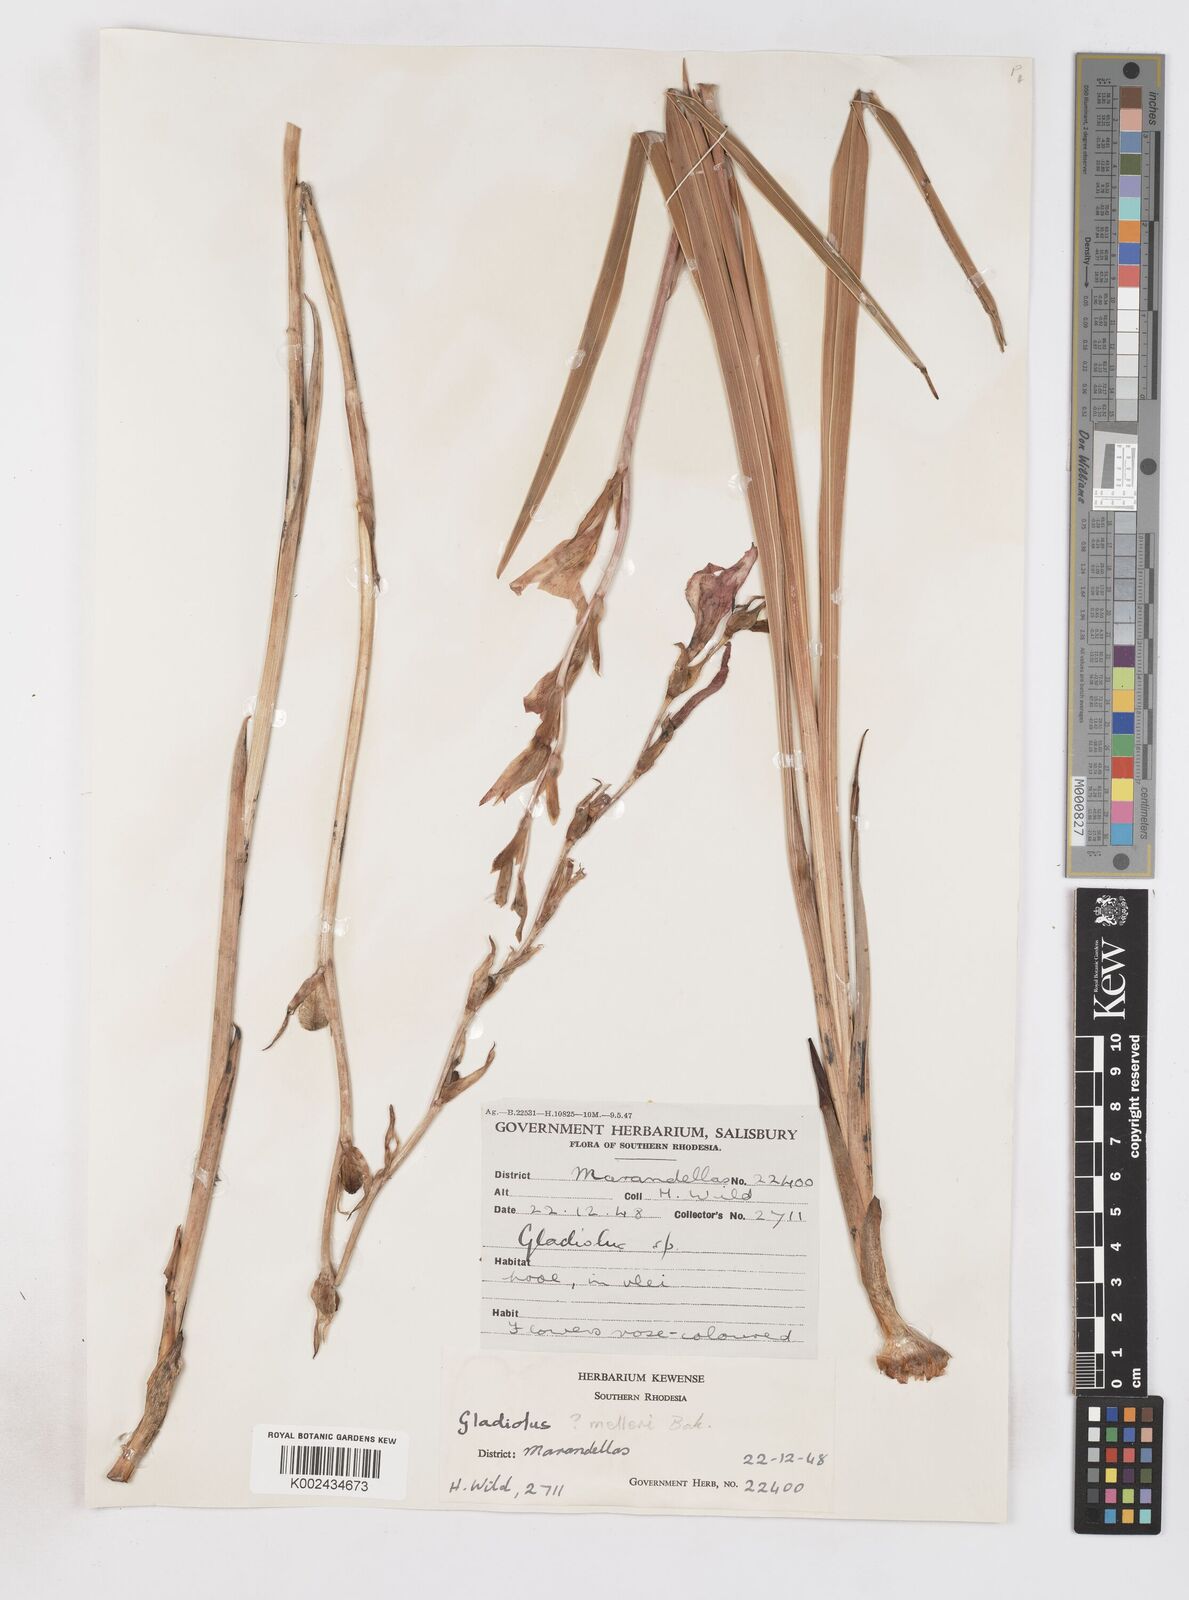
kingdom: Plantae
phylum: Tracheophyta
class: Liliopsida
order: Asparagales
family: Iridaceae
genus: Gladiolus
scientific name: Gladiolus melleri
